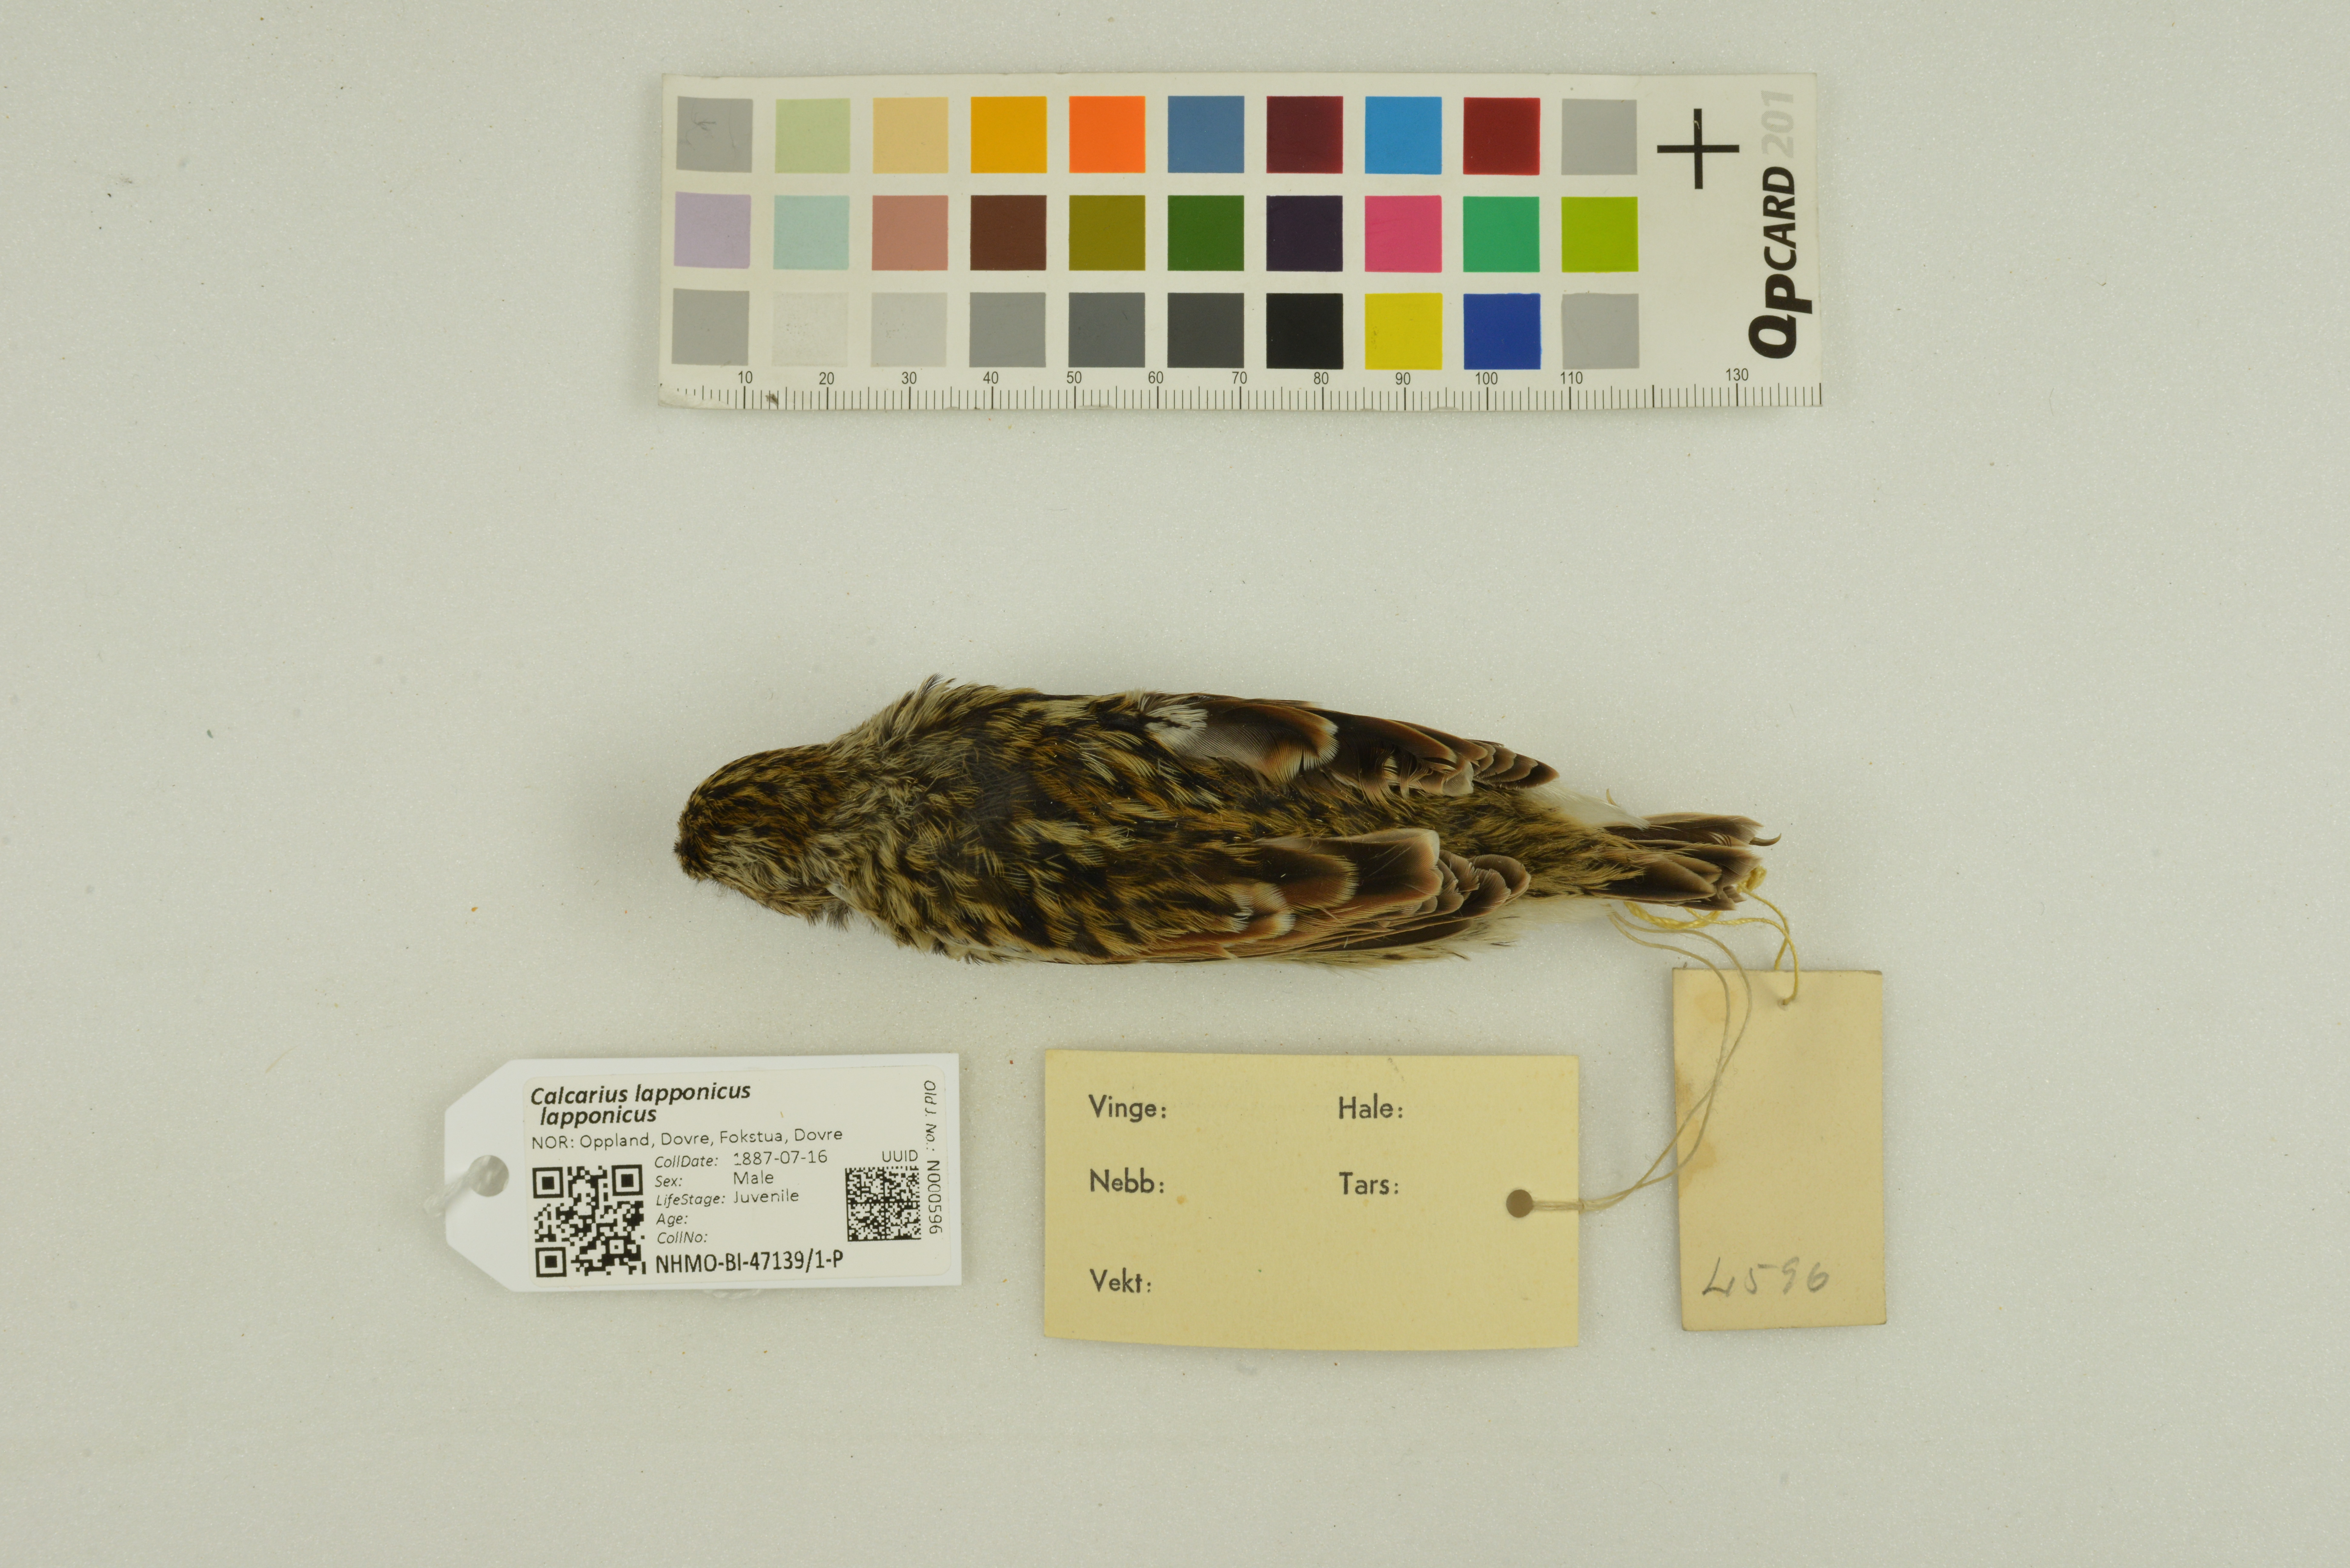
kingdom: Animalia
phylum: Chordata
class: Aves
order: Passeriformes
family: Calcariidae
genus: Calcarius
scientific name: Calcarius lapponicus
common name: Lapland longspur
